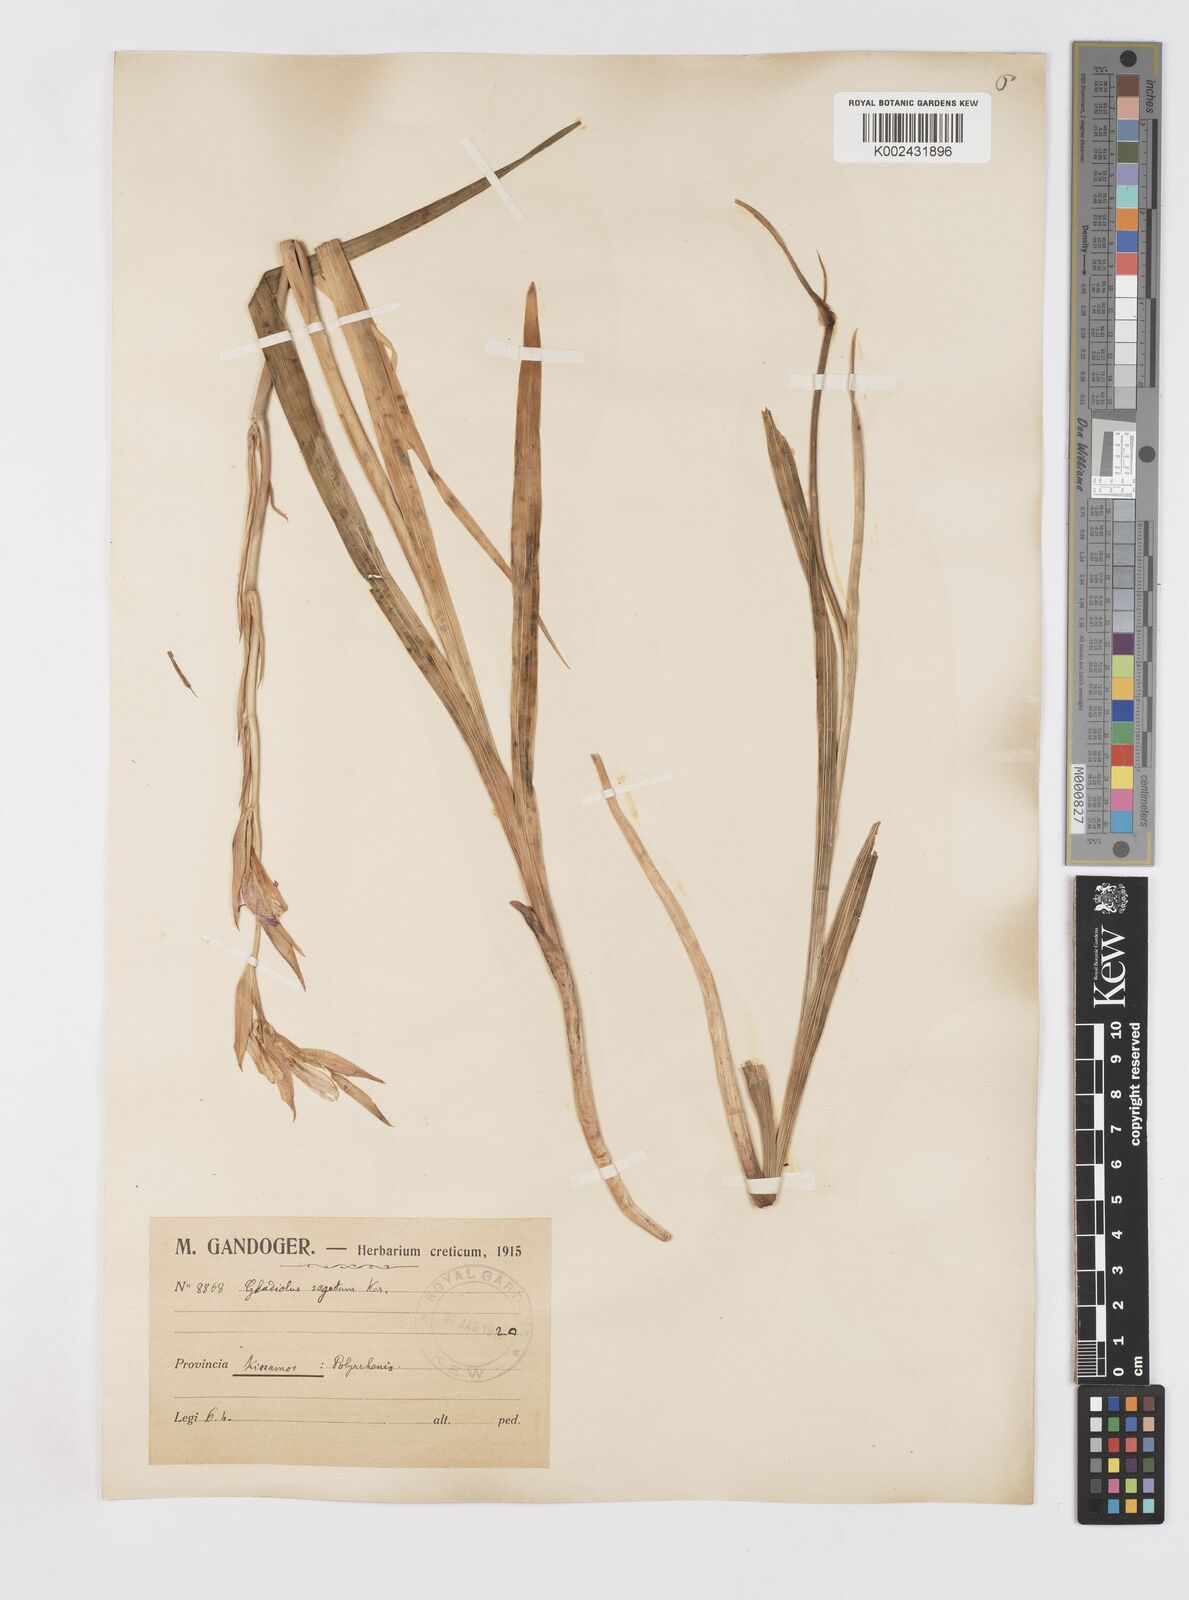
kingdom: Plantae
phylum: Tracheophyta
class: Liliopsida
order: Asparagales
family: Iridaceae
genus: Gladiolus
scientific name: Gladiolus italicus
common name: Field gladiolus
